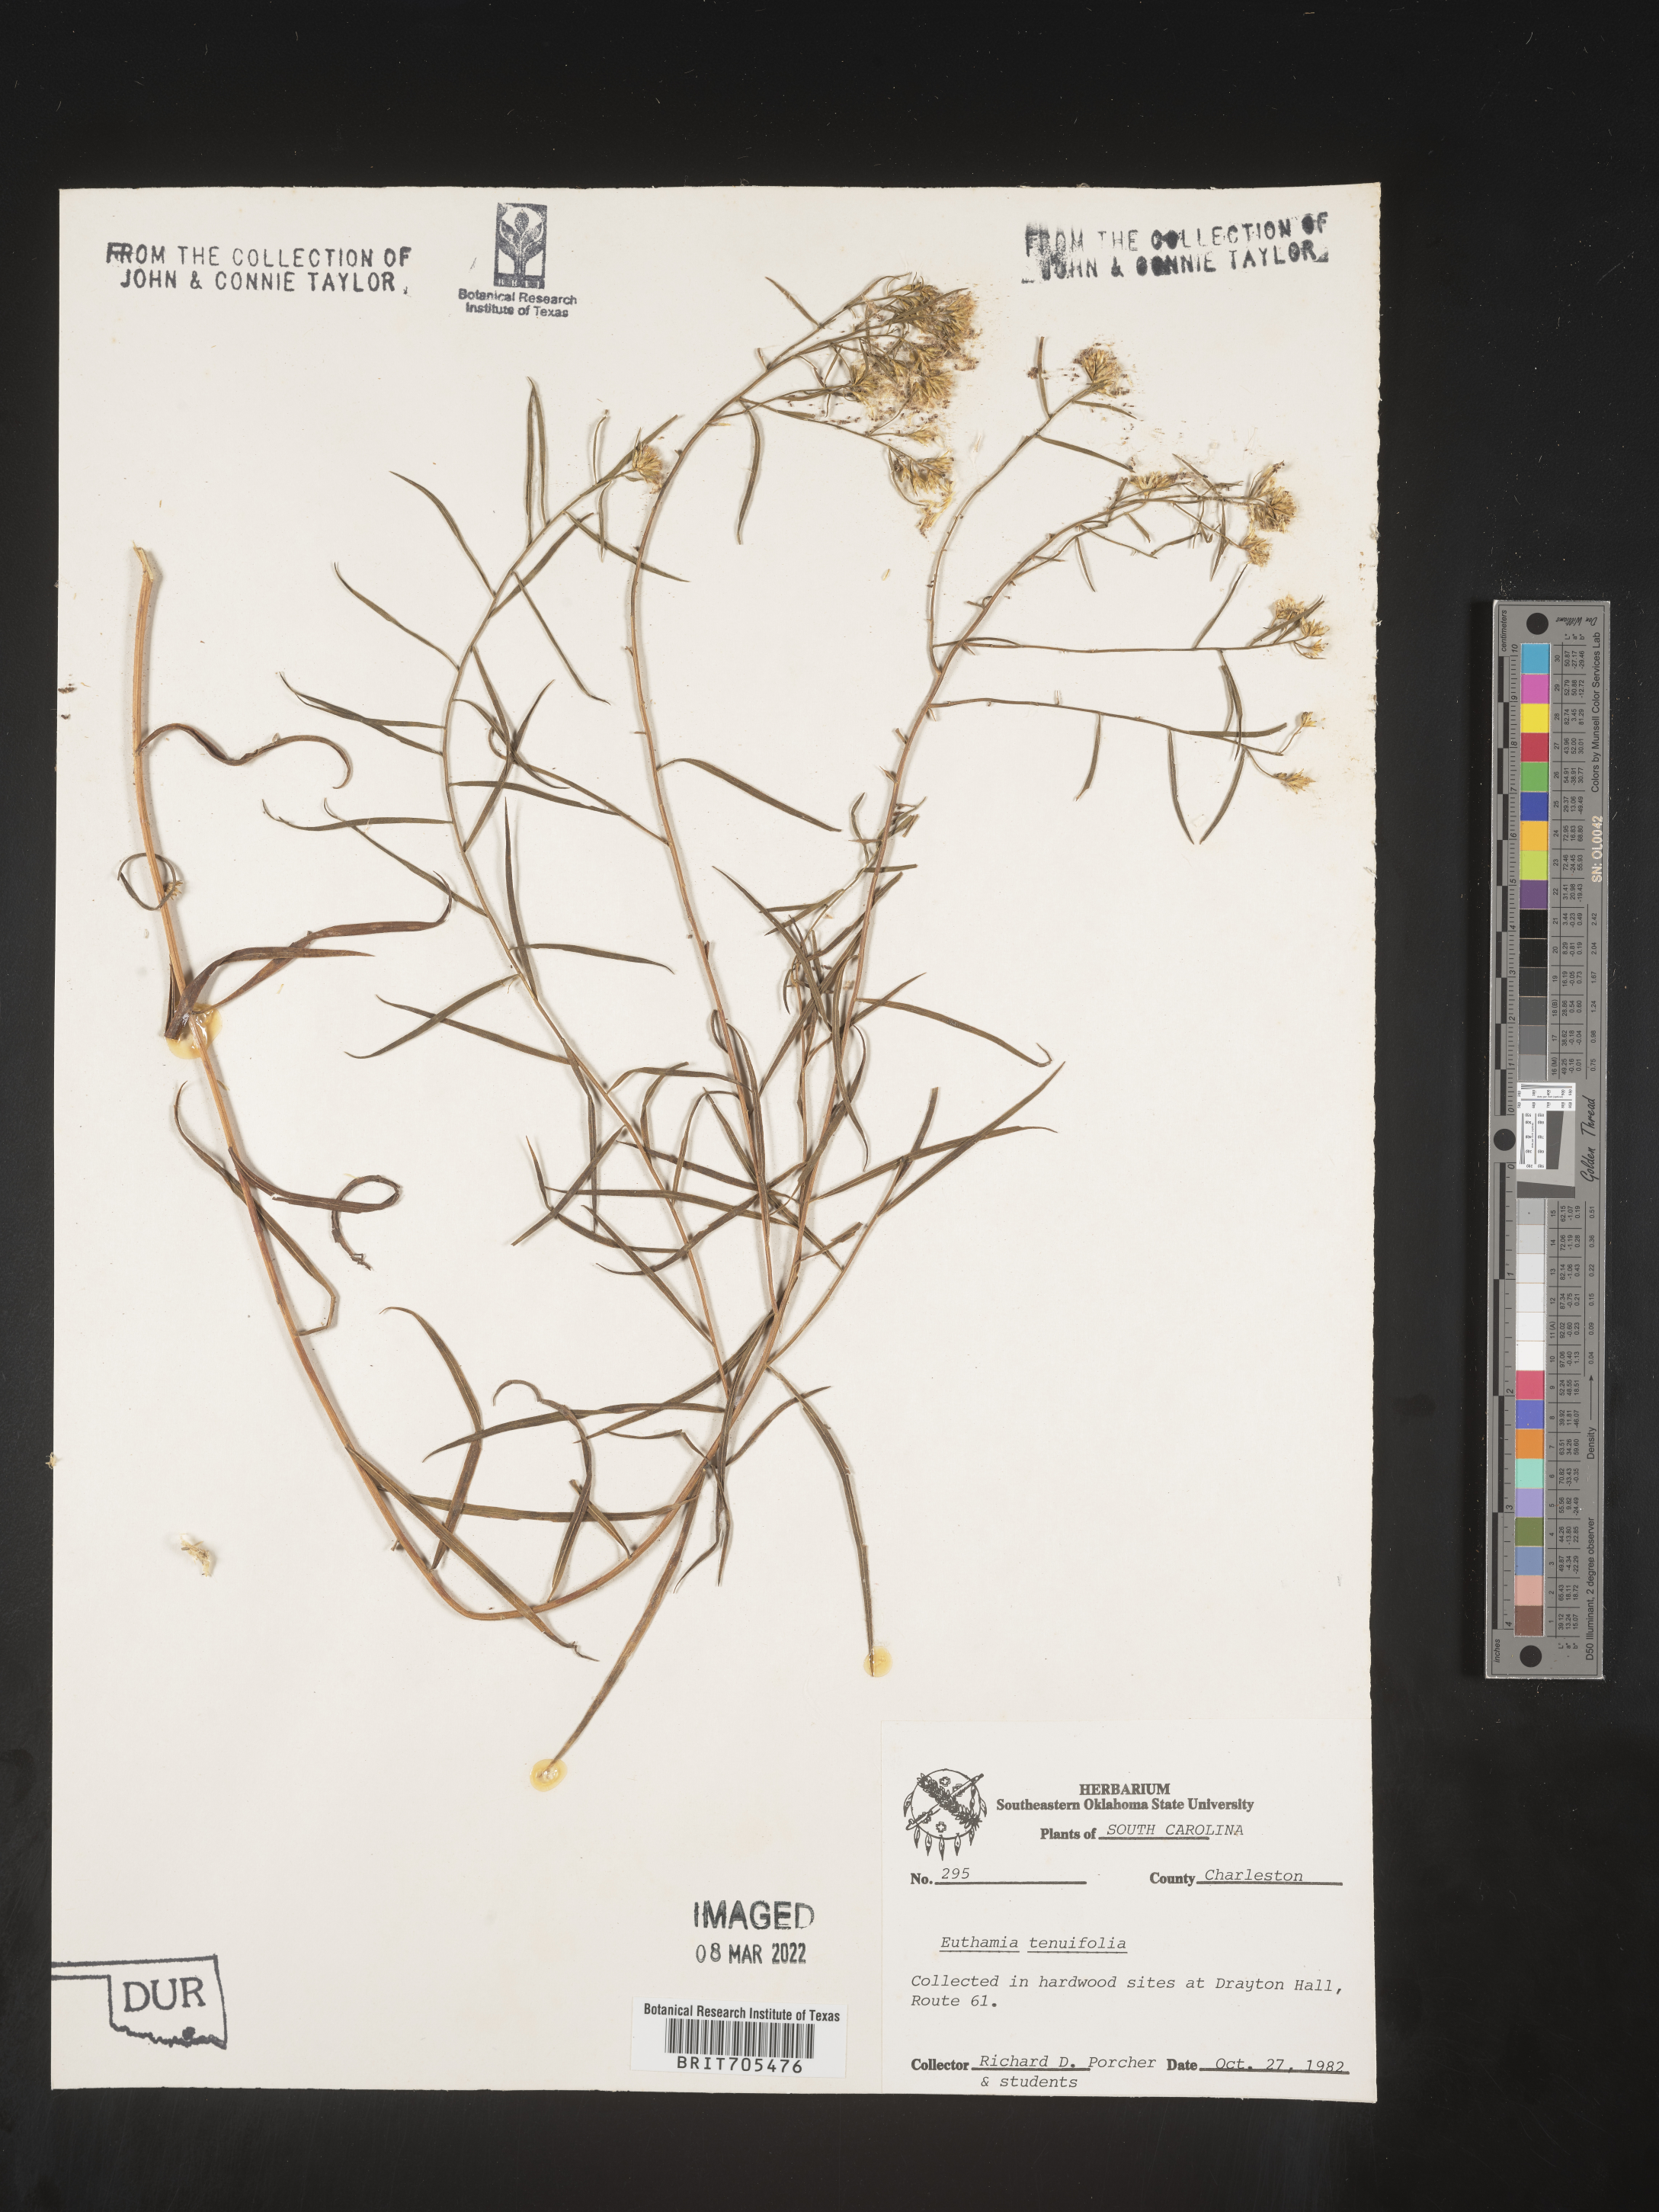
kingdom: Plantae
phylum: Tracheophyta
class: Magnoliopsida
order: Asterales
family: Asteraceae
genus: Euthamia
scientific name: Euthamia caroliniana
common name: Coastal plain goldentop
